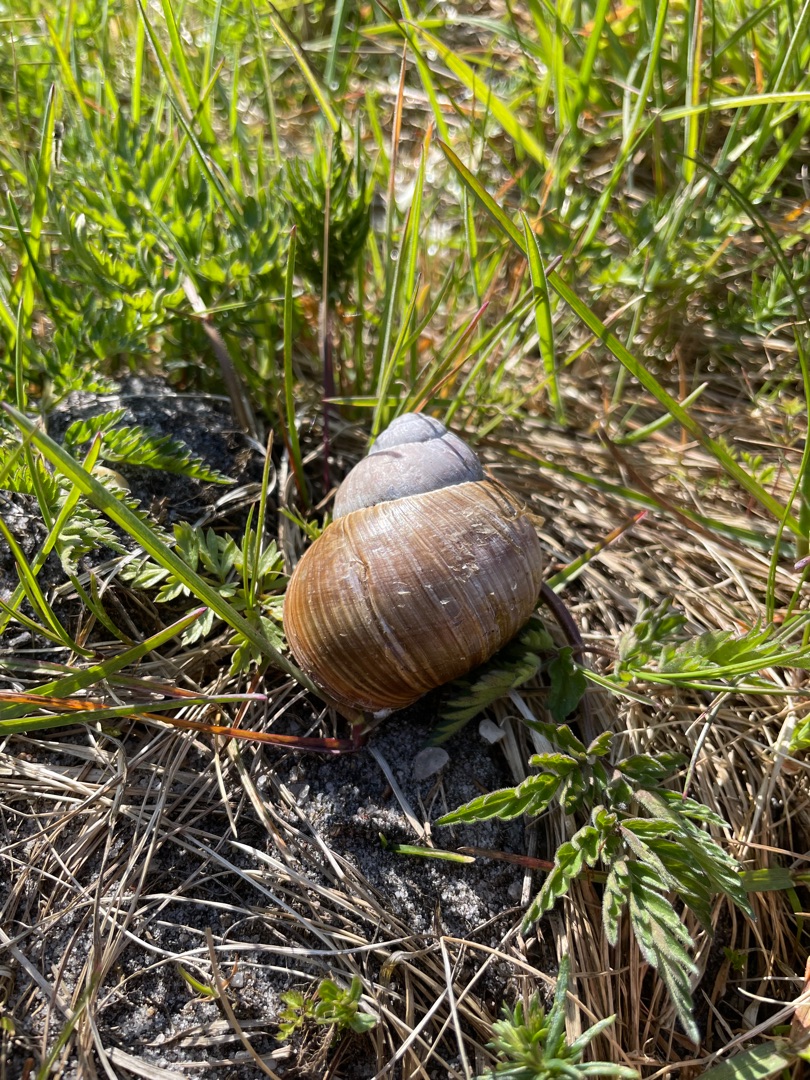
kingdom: Animalia
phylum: Mollusca
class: Gastropoda
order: Stylommatophora
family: Helicidae
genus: Helix
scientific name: Helix pomatia
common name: Vinbjergsnegl
